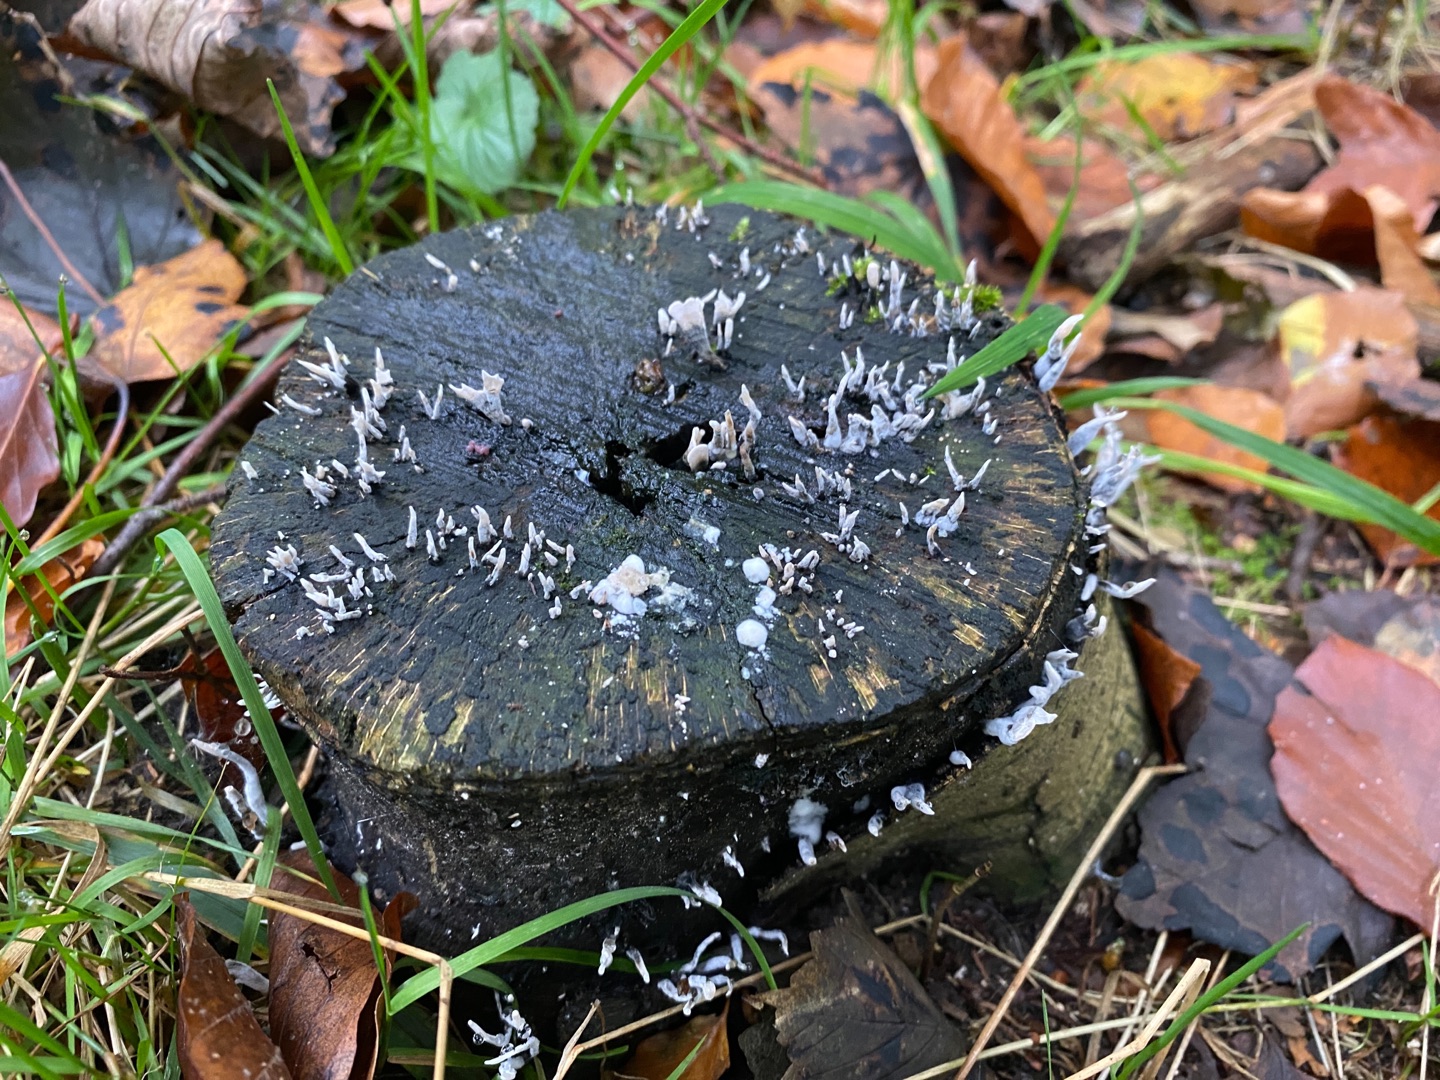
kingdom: Fungi
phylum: Ascomycota
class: Sordariomycetes
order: Xylariales
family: Xylariaceae
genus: Xylaria
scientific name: Xylaria hypoxylon
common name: Grenet stødsvamp
